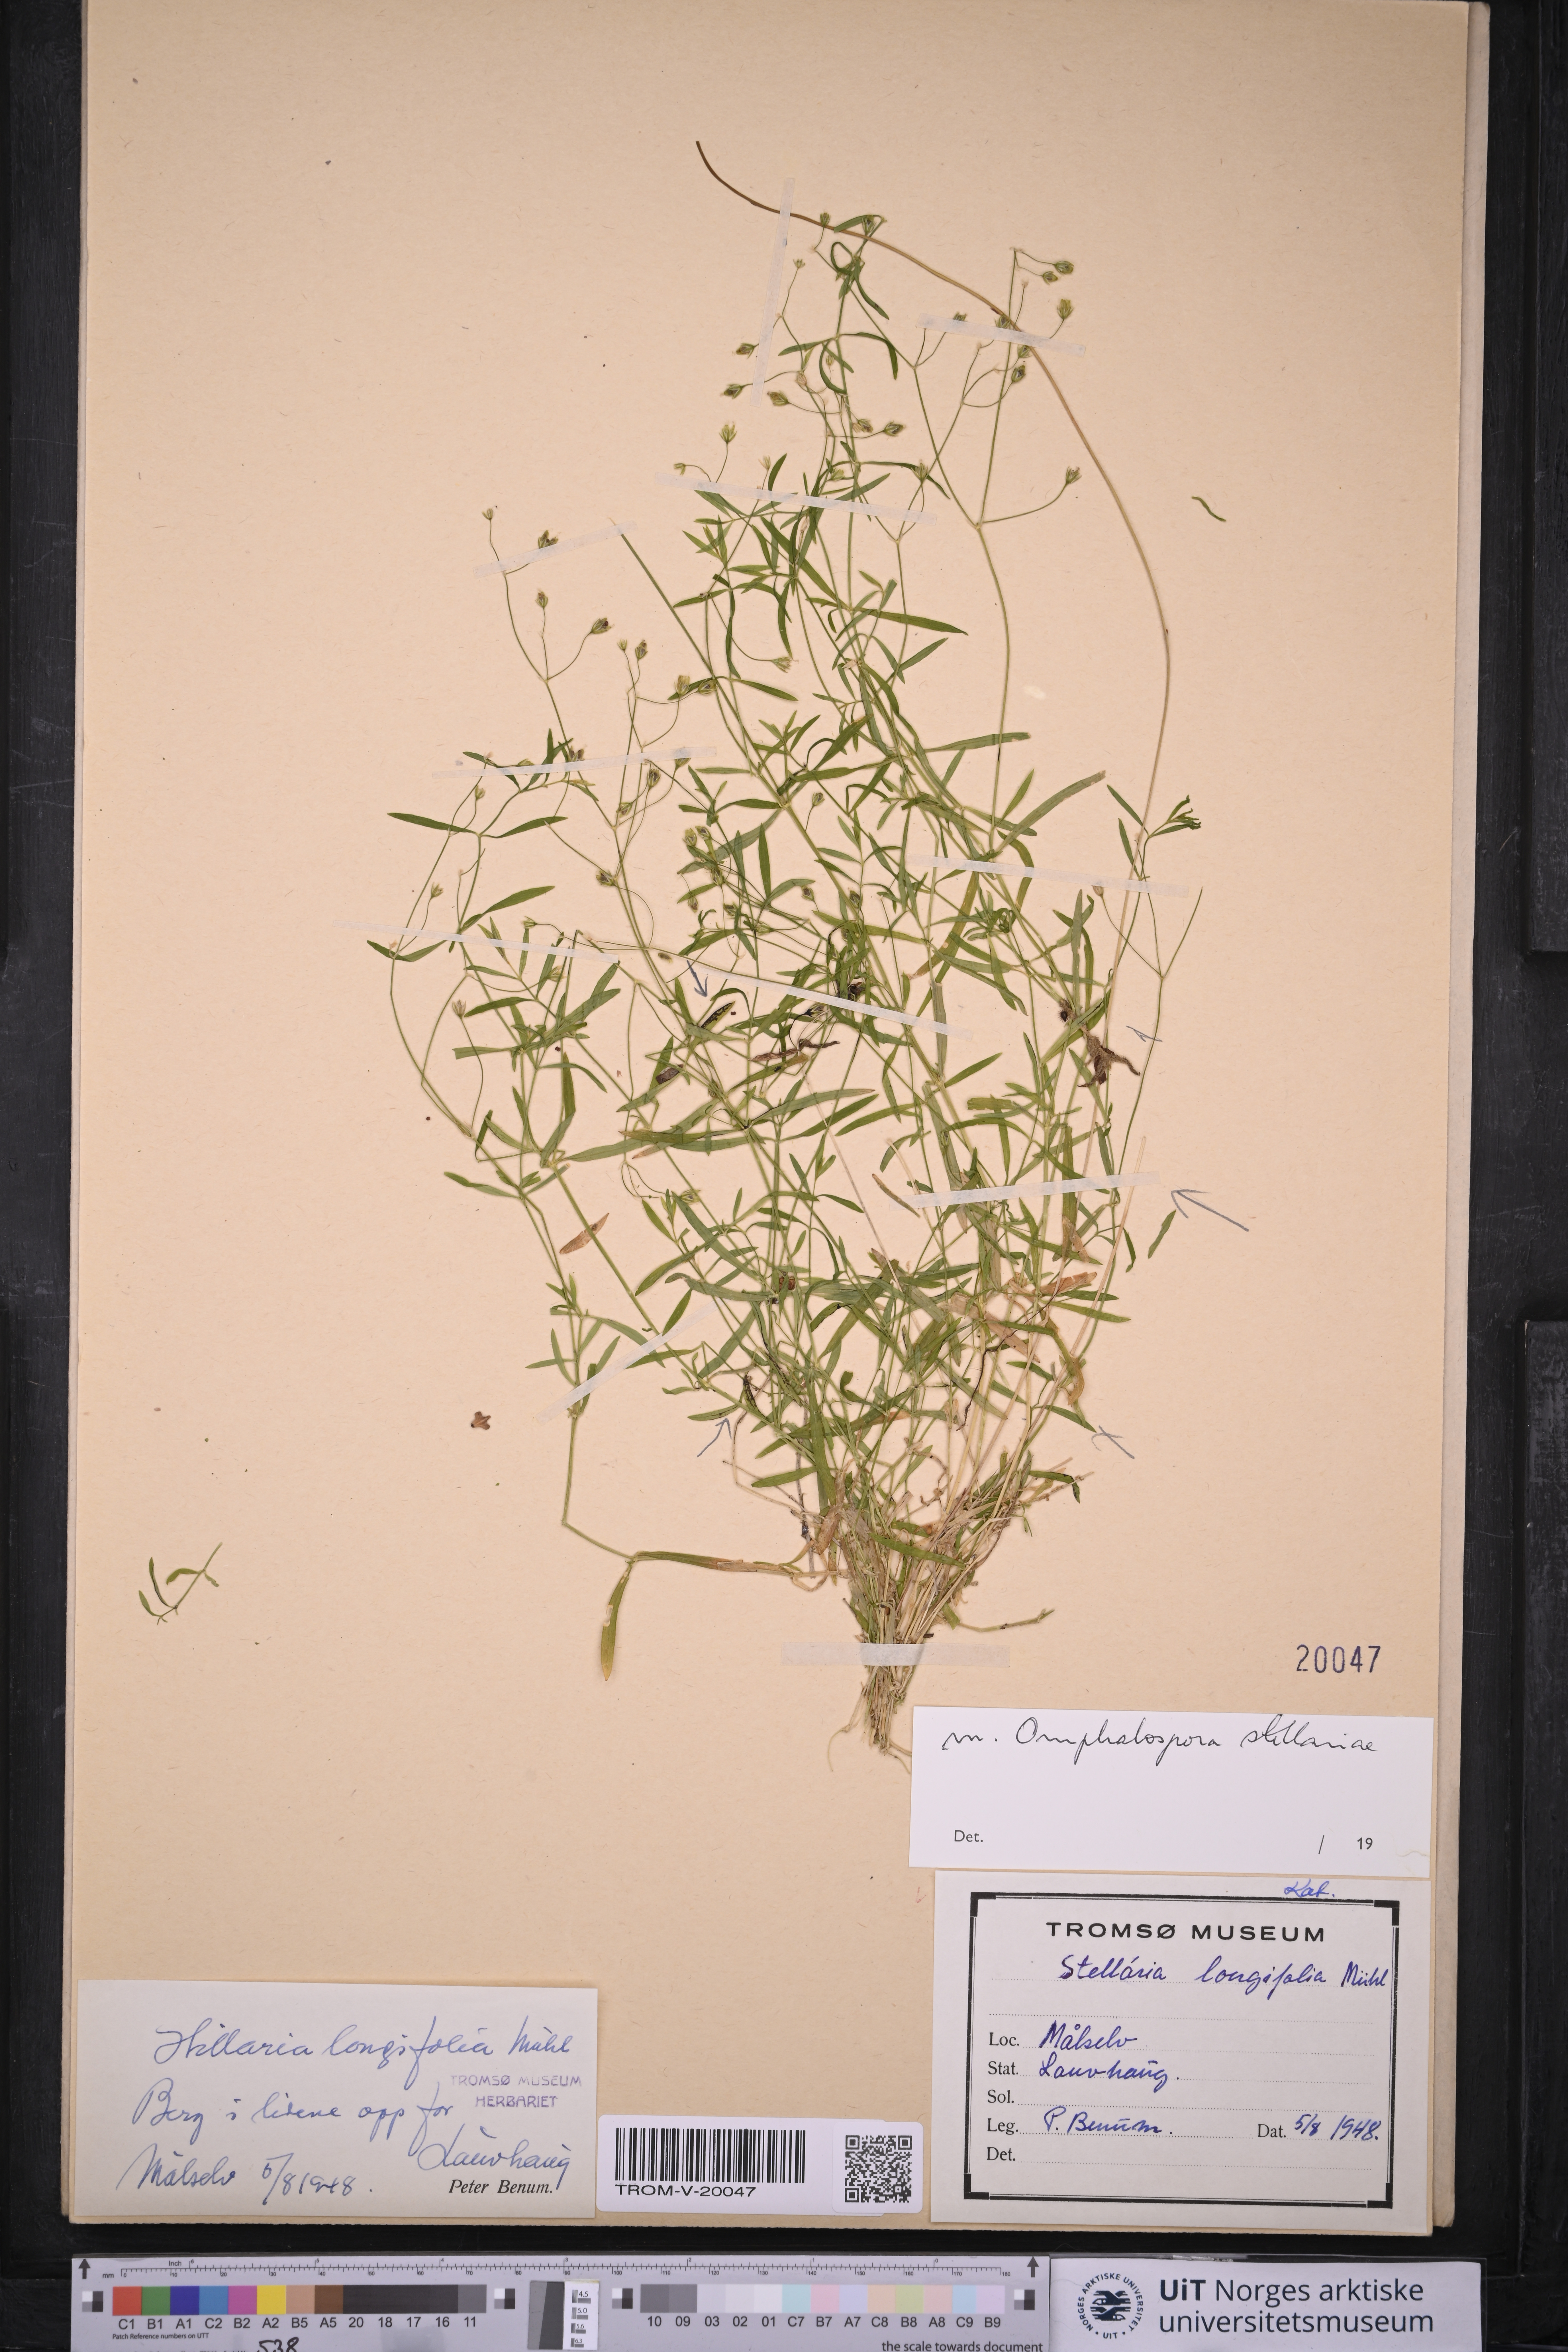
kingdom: Plantae
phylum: Tracheophyta
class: Magnoliopsida
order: Caryophyllales
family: Caryophyllaceae
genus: Stellaria
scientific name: Stellaria longifolia
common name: Long-leaved chickweed
